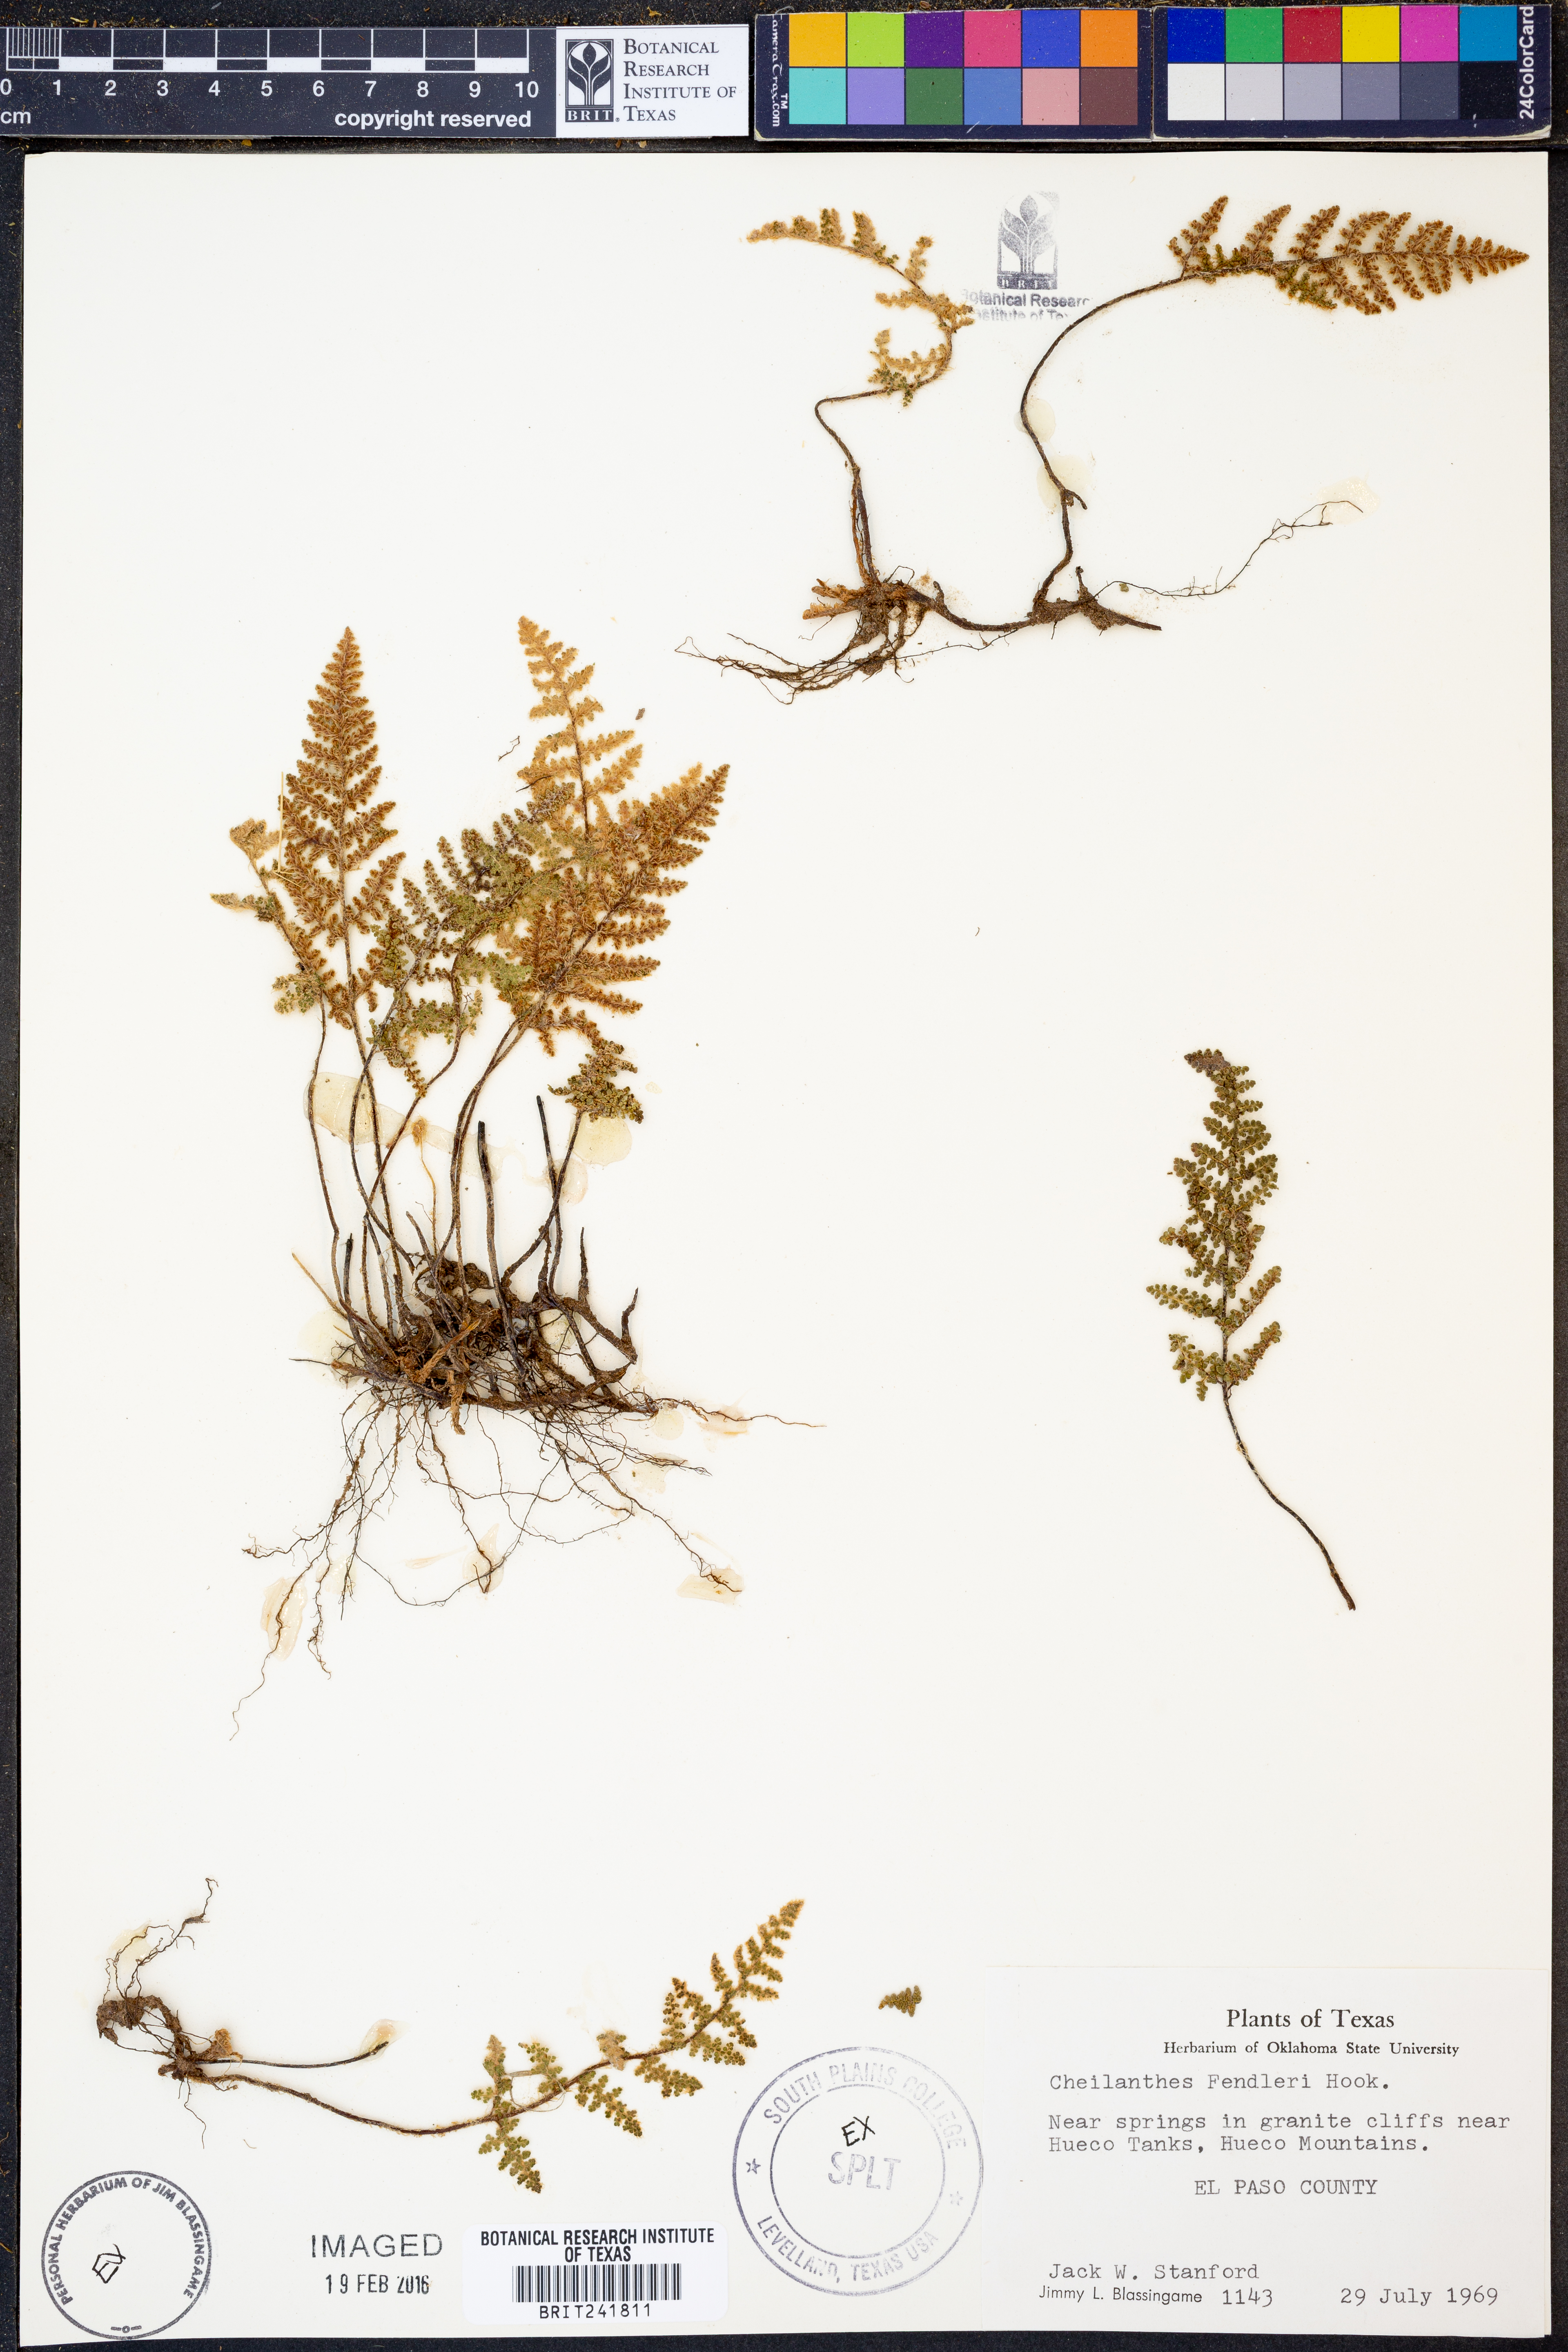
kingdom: Plantae
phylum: Tracheophyta
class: Polypodiopsida
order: Polypodiales
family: Pteridaceae
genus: Myriopteris
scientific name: Myriopteris fendleri
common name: Fendler's lip fern
